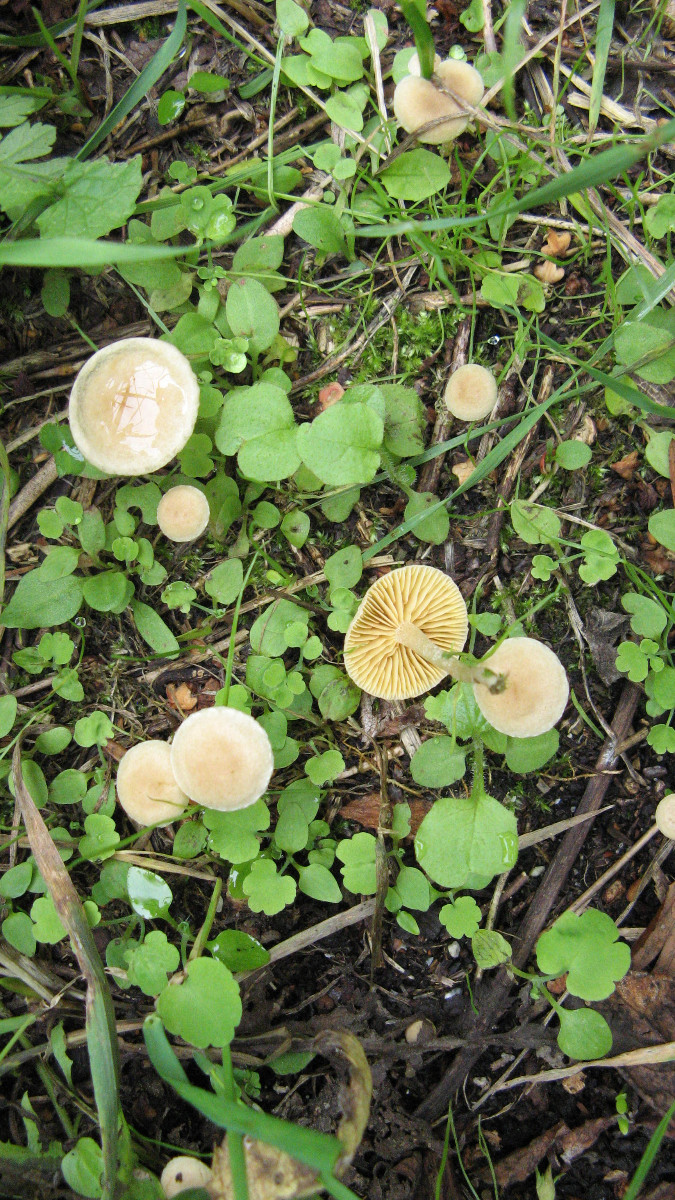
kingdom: Fungi
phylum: Basidiomycota
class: Agaricomycetes
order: Agaricales
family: Tubariaceae
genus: Tubaria
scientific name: Tubaria furfuracea
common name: kliddet fnughat
